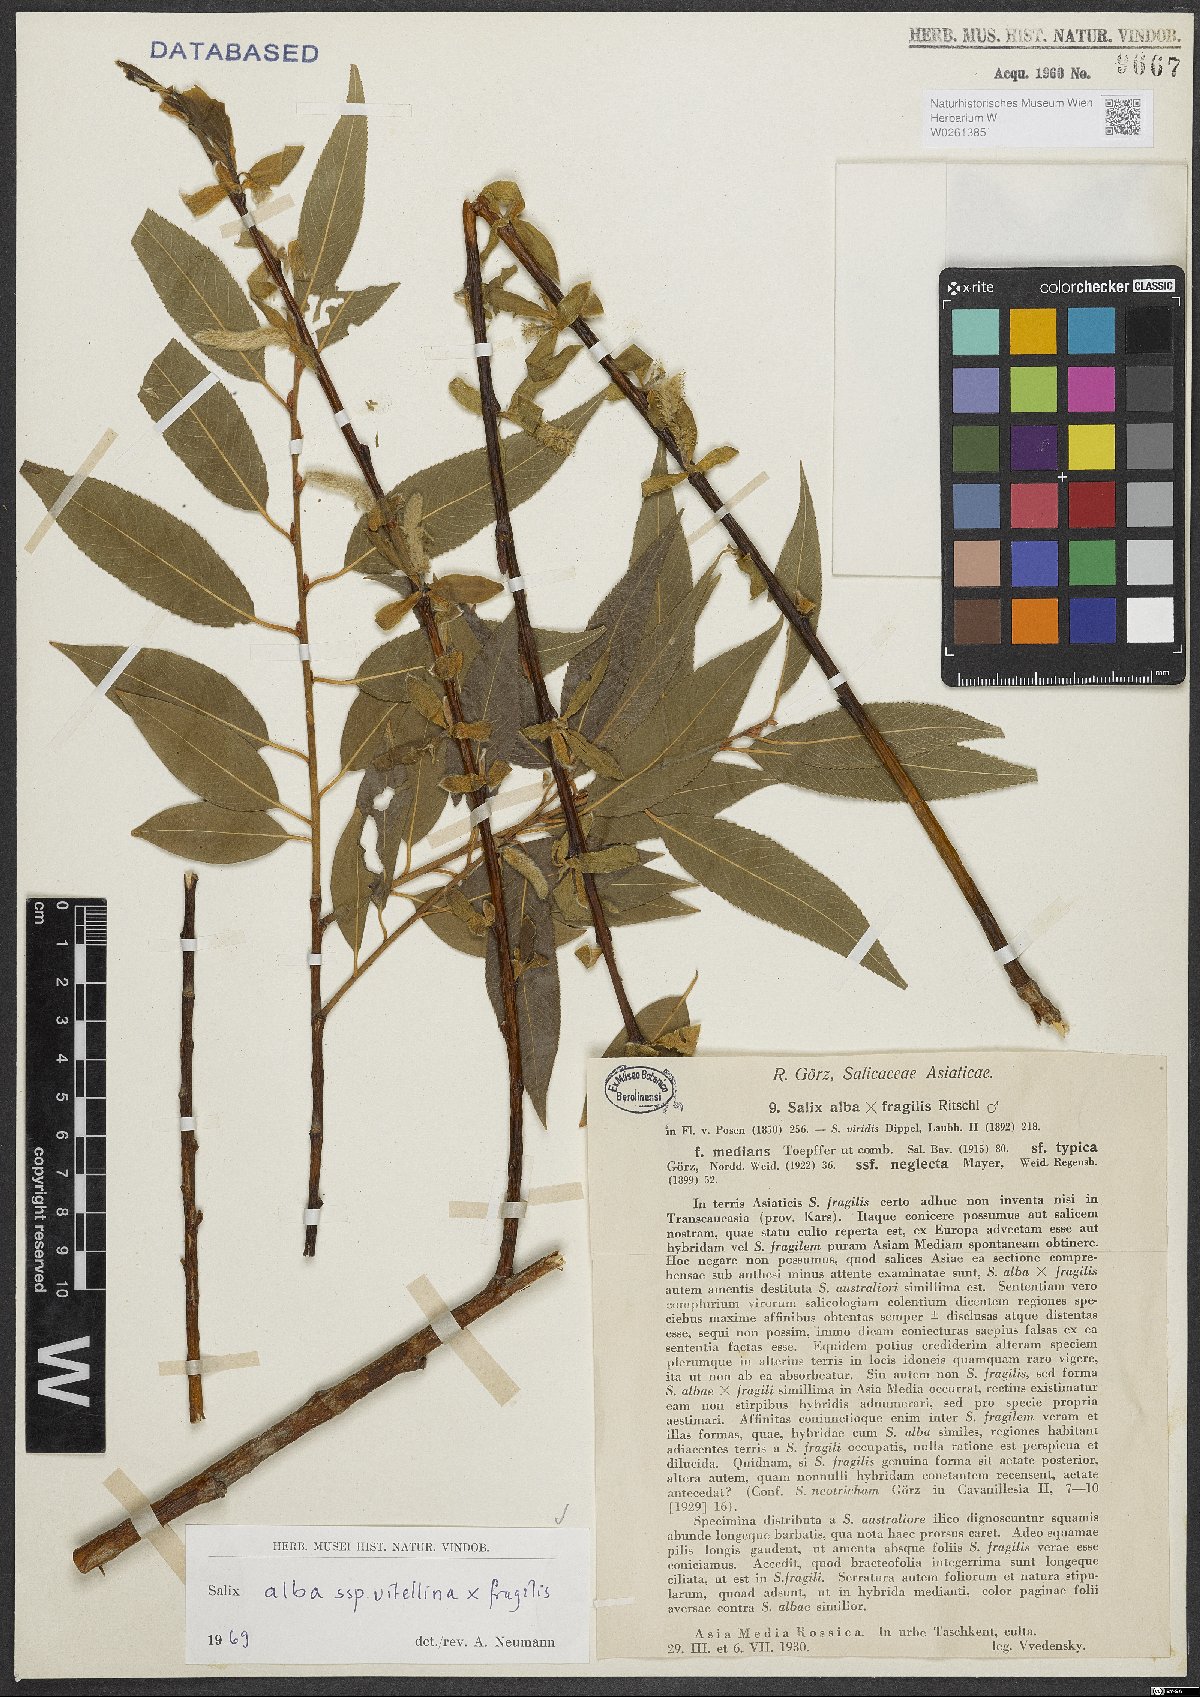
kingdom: Plantae
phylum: Tracheophyta
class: Magnoliopsida
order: Malpighiales
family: Salicaceae
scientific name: Salicaceae
